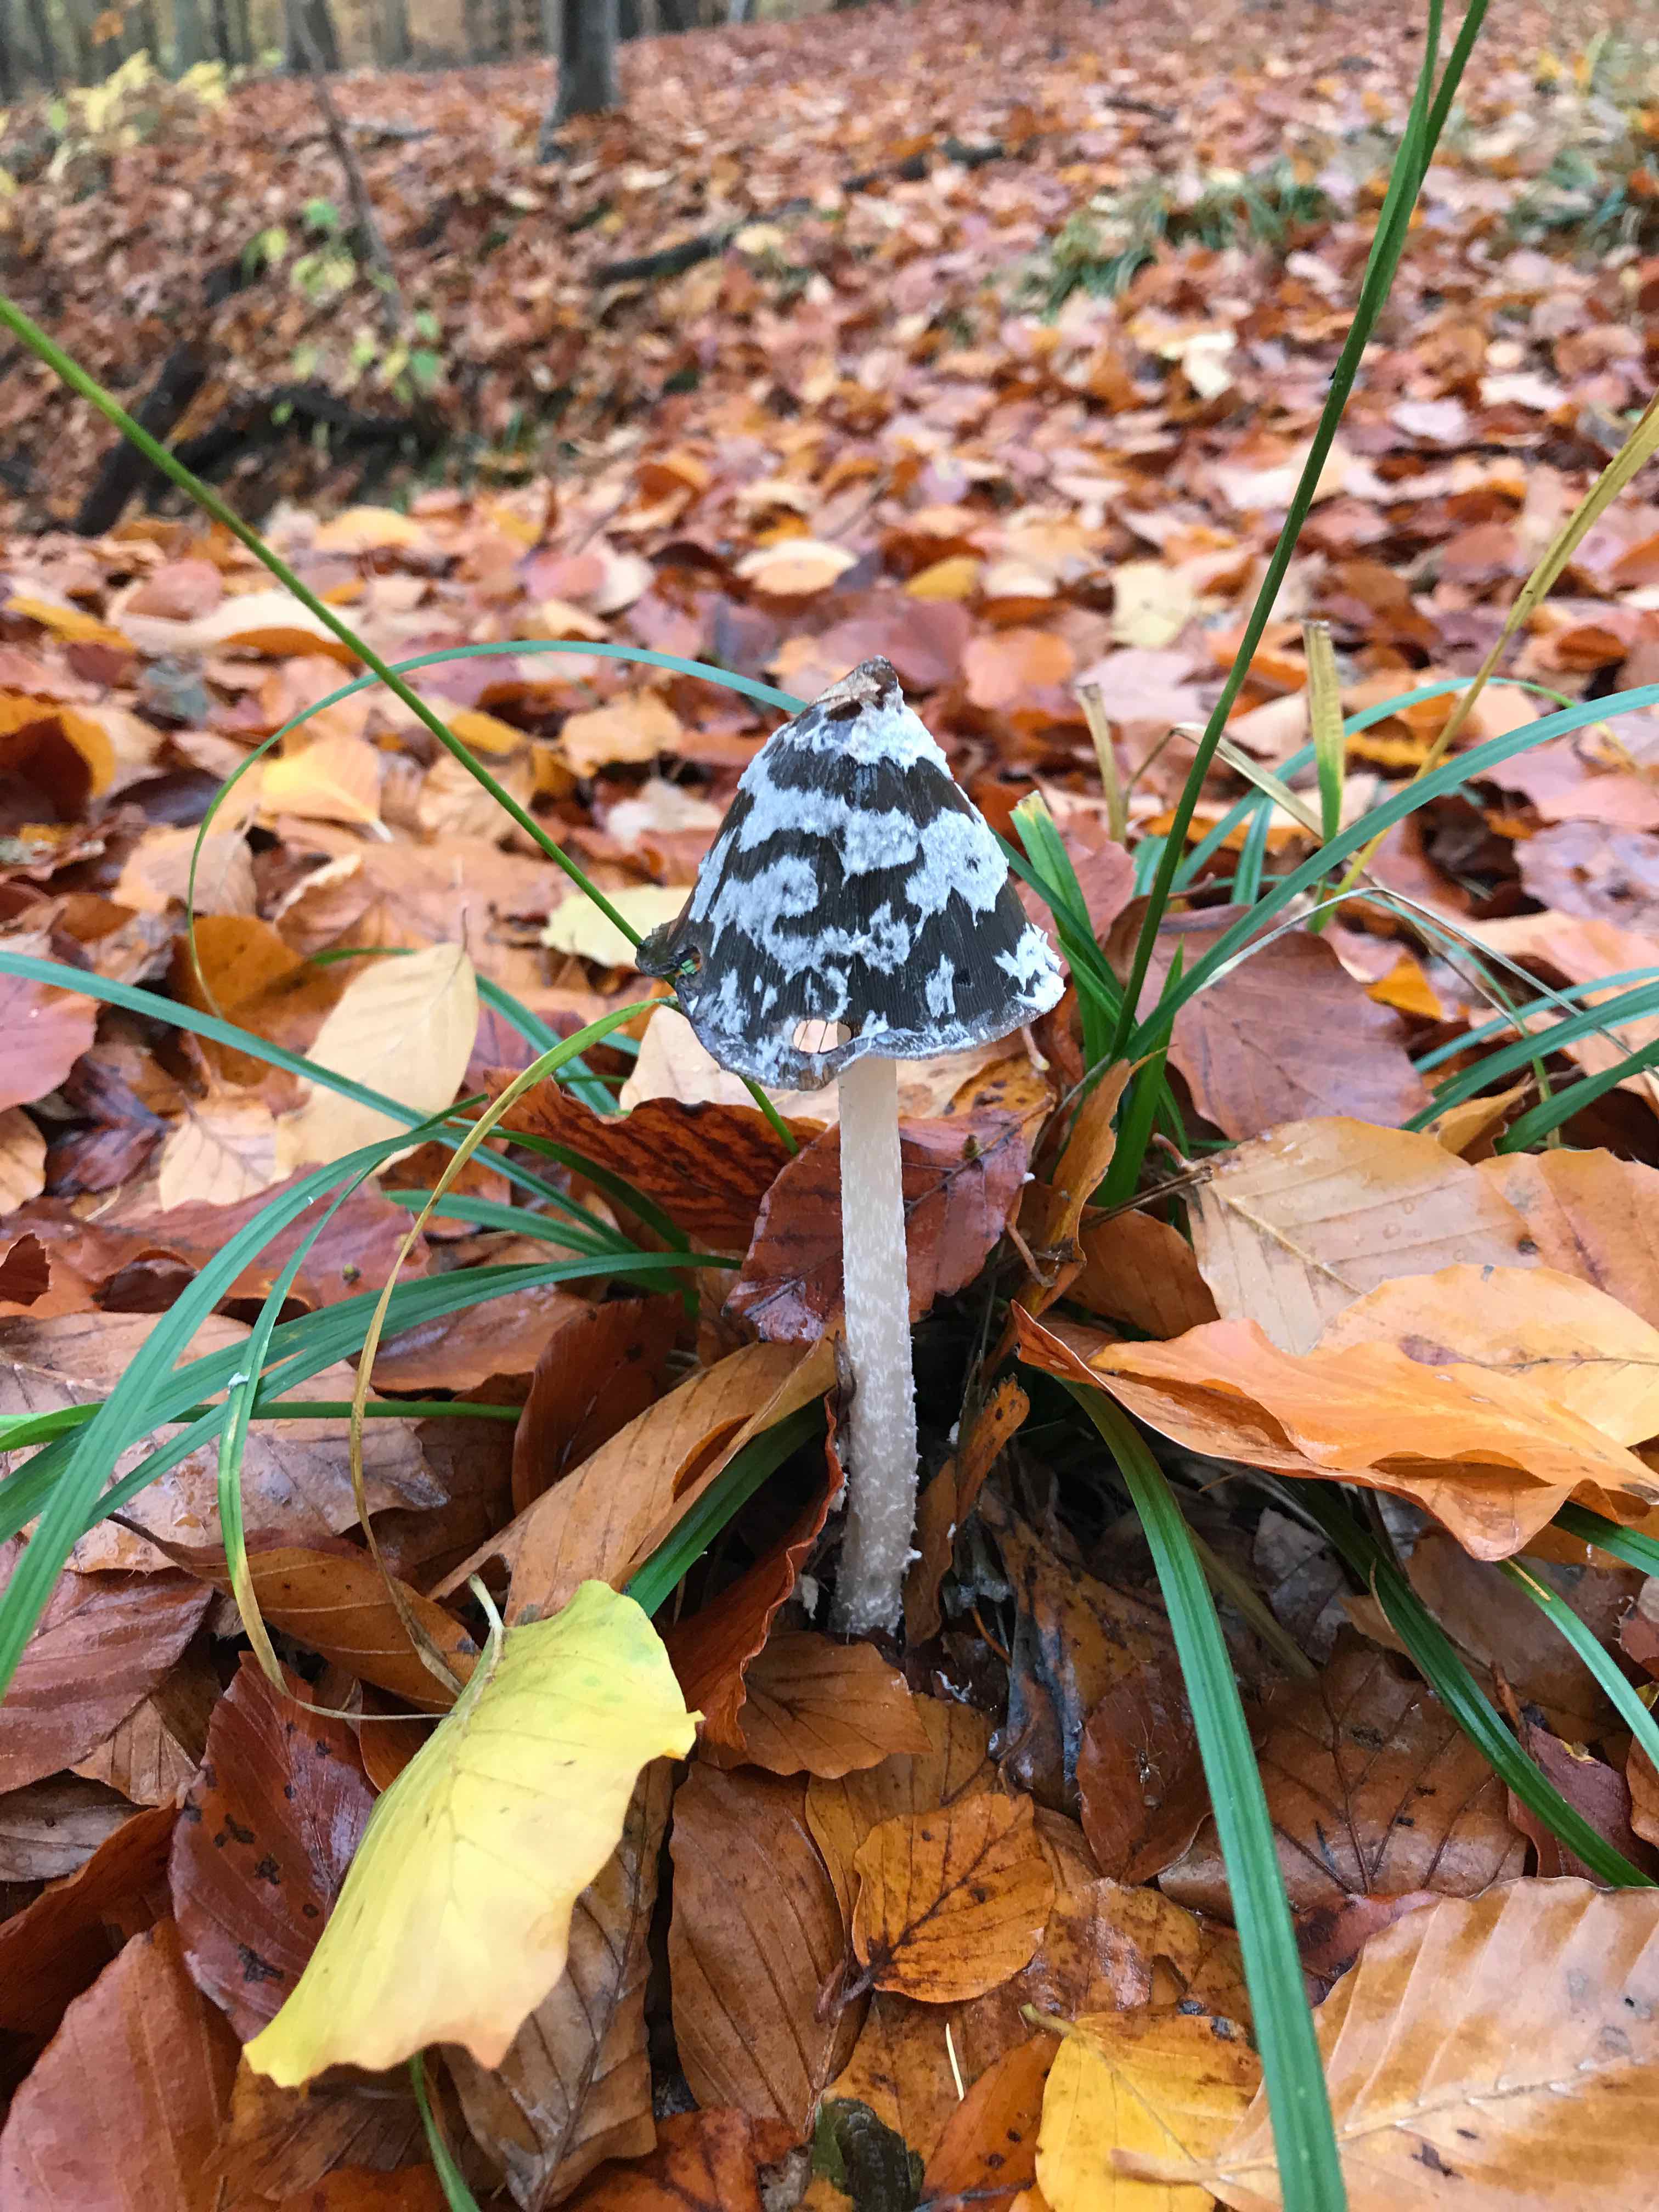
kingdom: Fungi
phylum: Basidiomycota
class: Agaricomycetes
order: Agaricales
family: Psathyrellaceae
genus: Coprinopsis
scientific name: Coprinopsis picacea
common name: skade-blækhat
